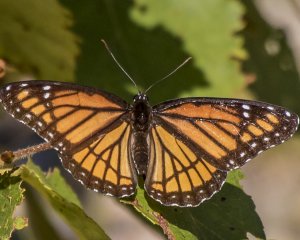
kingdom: Animalia
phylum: Arthropoda
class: Insecta
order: Lepidoptera
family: Nymphalidae
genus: Limenitis
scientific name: Limenitis archippus
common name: Viceroy
